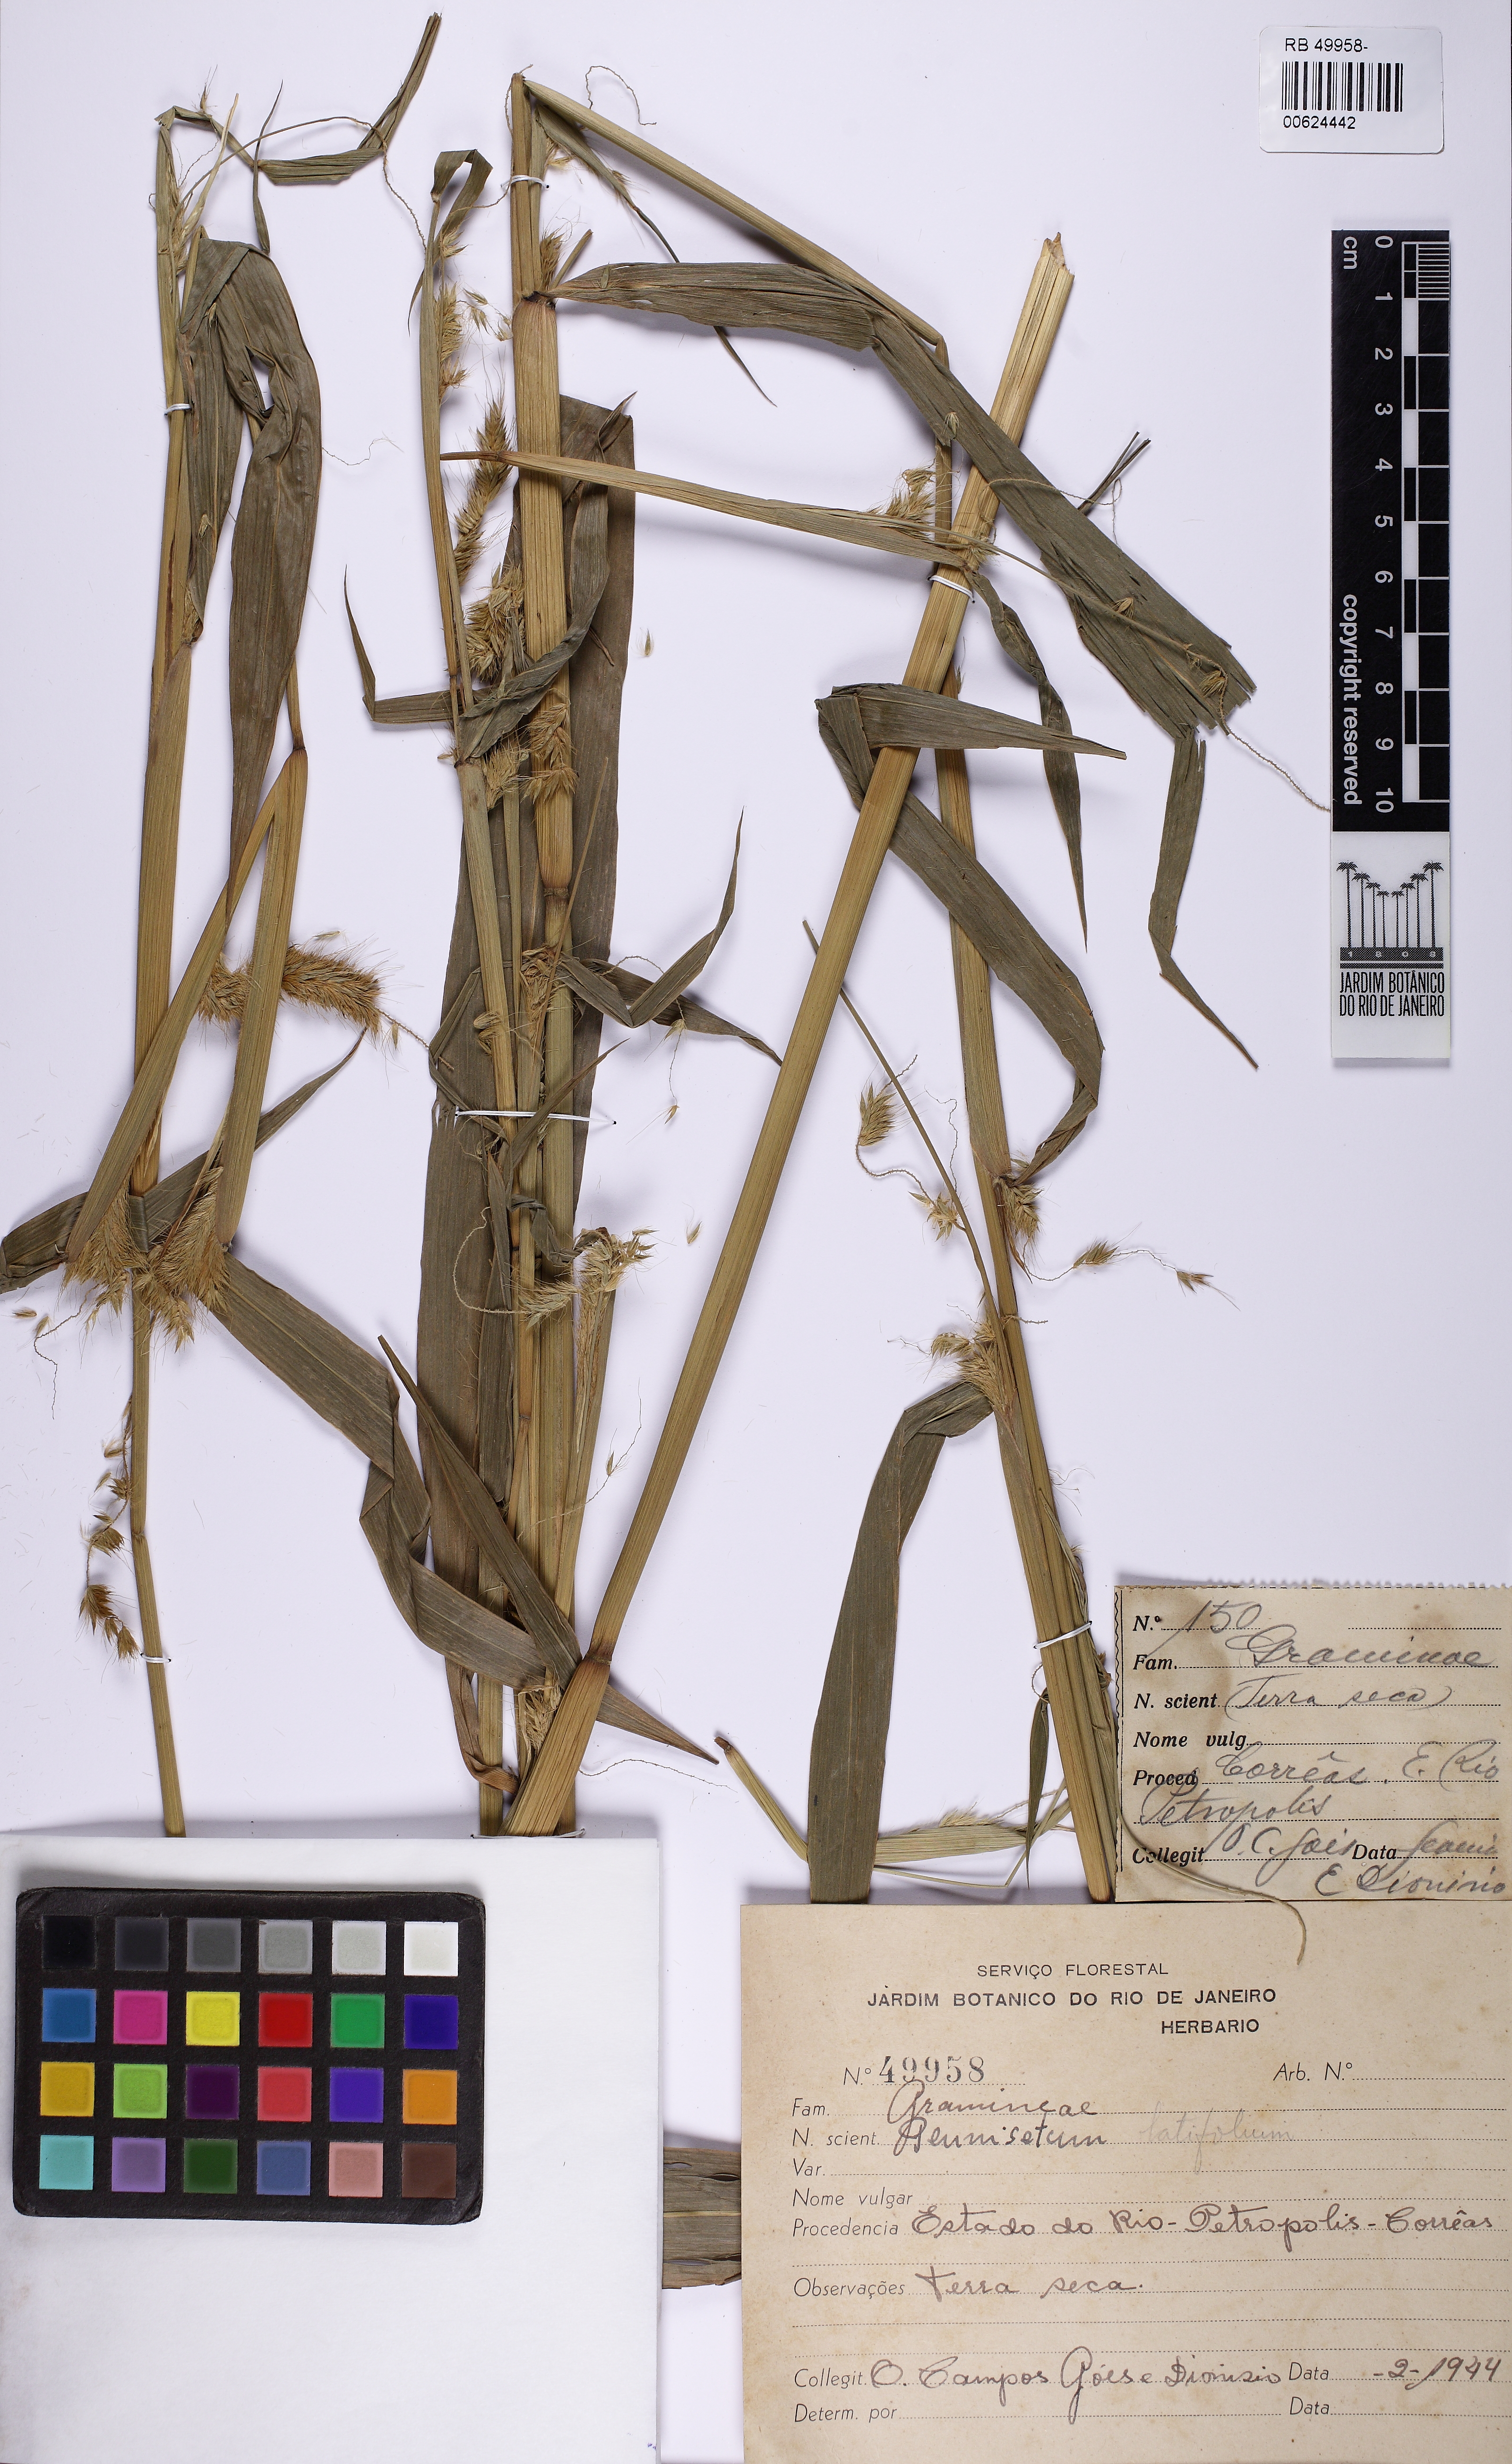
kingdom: Plantae
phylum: Tracheophyta
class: Liliopsida
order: Poales
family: Poaceae
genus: Cenchrus
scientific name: Cenchrus latifolius
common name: Sandbur
